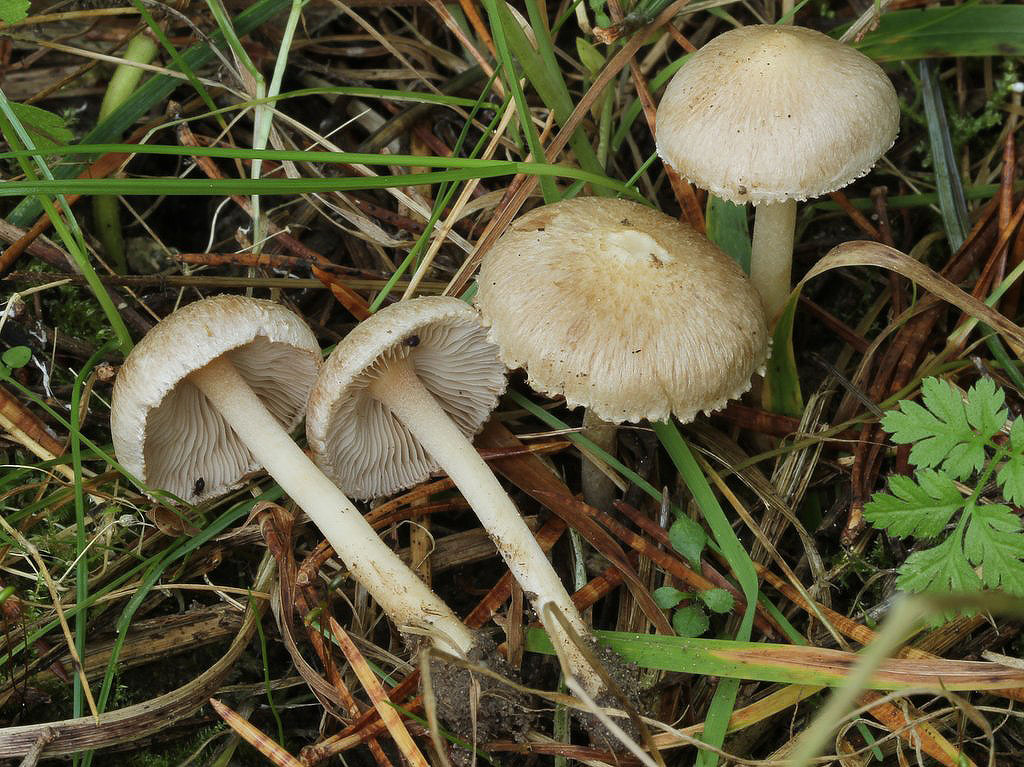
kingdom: Fungi
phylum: Basidiomycota
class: Agaricomycetes
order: Agaricales
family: Inocybaceae
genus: Inocybe
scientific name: Inocybe sindonia
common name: bleg trævlhat
